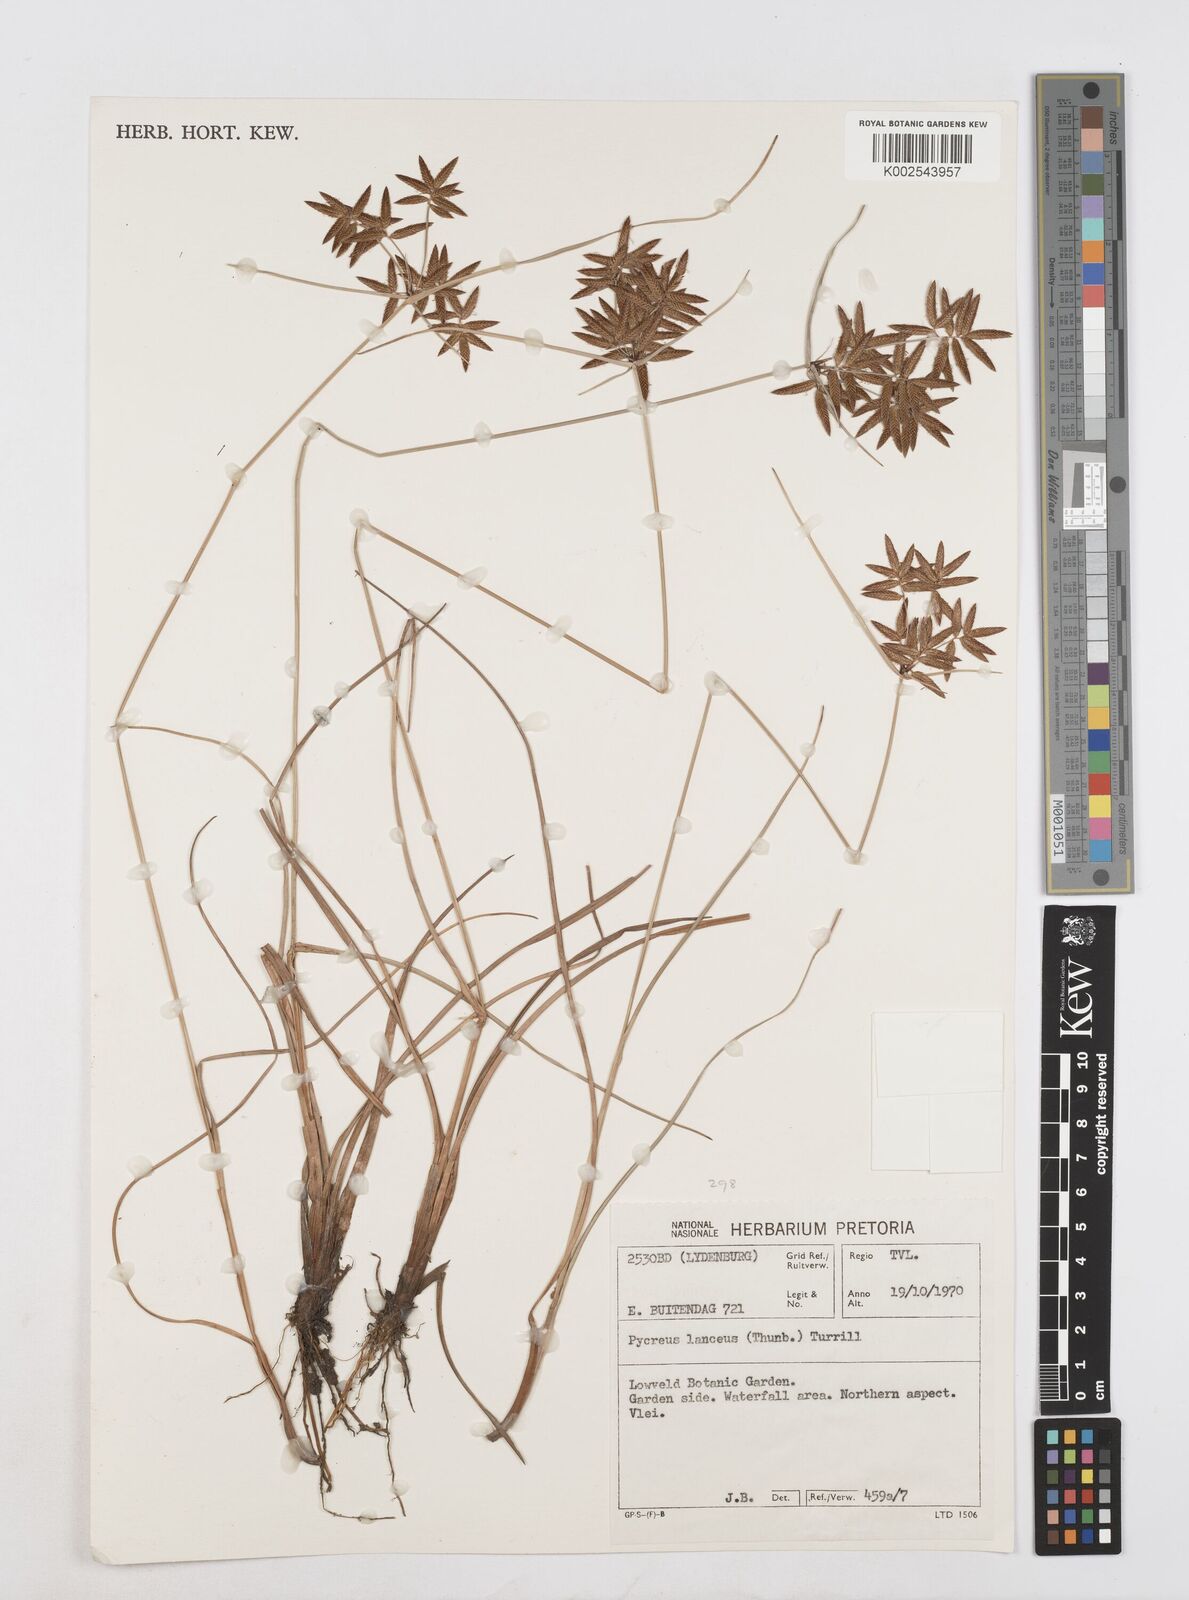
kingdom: Plantae
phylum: Tracheophyta
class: Liliopsida
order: Poales
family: Cyperaceae
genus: Cyperus
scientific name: Cyperus
